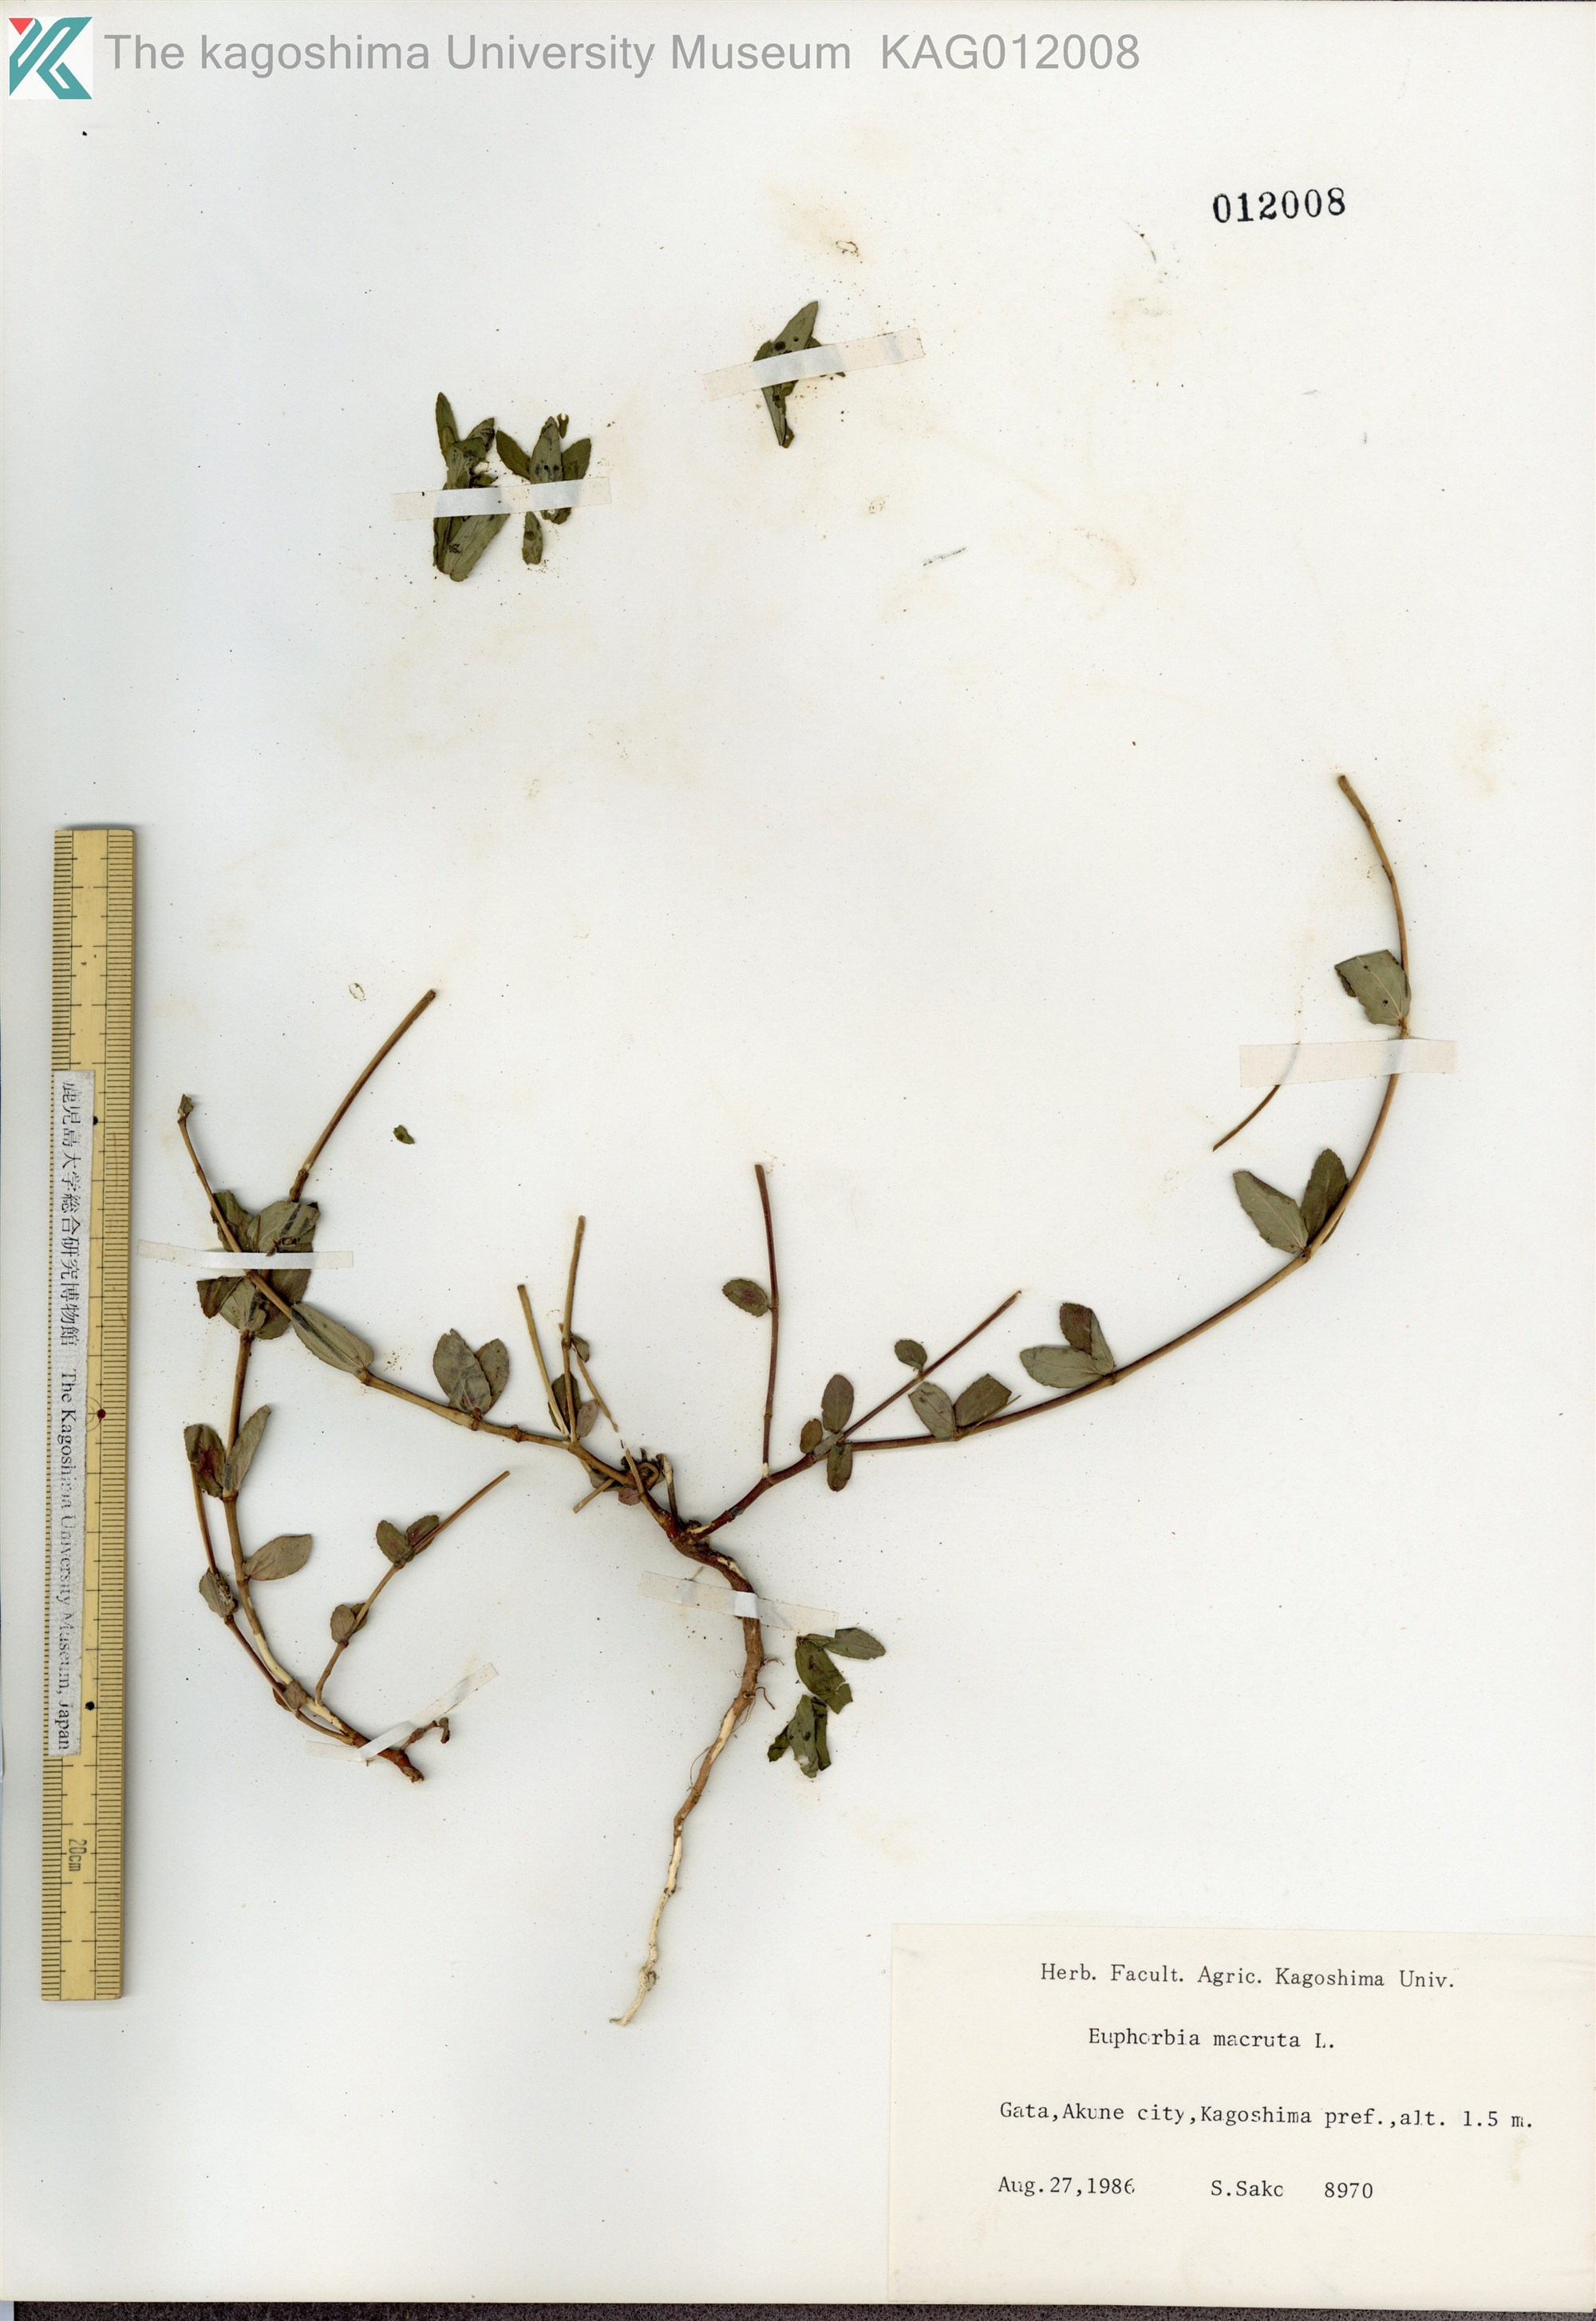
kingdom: Plantae
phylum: Tracheophyta
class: Magnoliopsida
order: Malpighiales
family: Euphorbiaceae
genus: Euphorbia
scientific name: Euphorbia hyssopifolia
